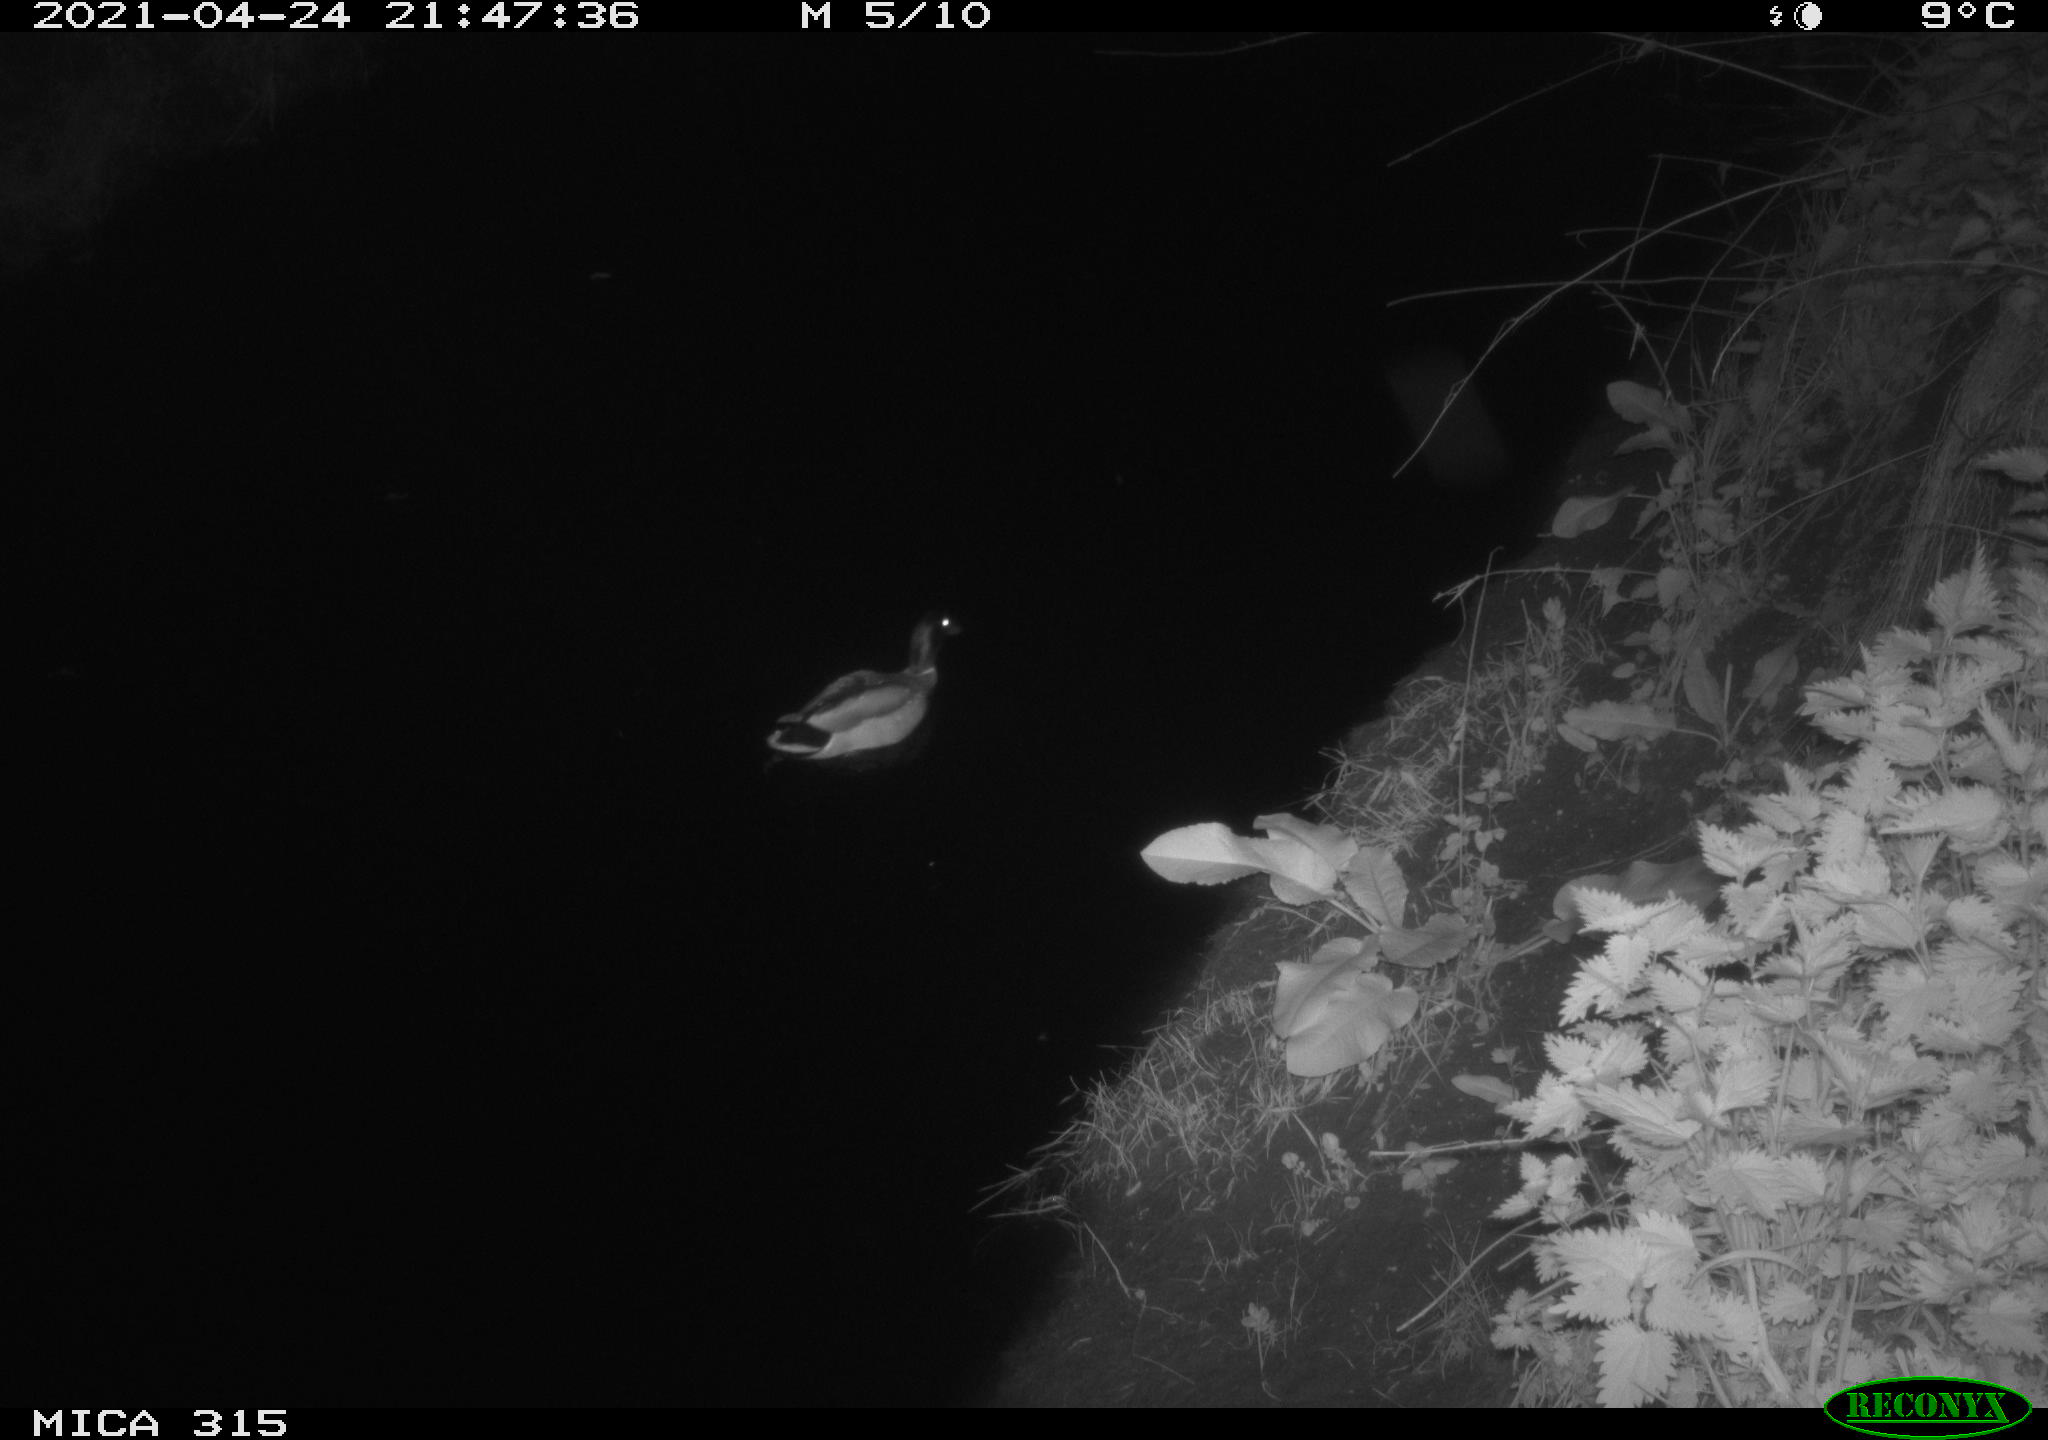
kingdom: Animalia
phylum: Chordata
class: Aves
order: Anseriformes
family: Anatidae
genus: Anas
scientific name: Anas
